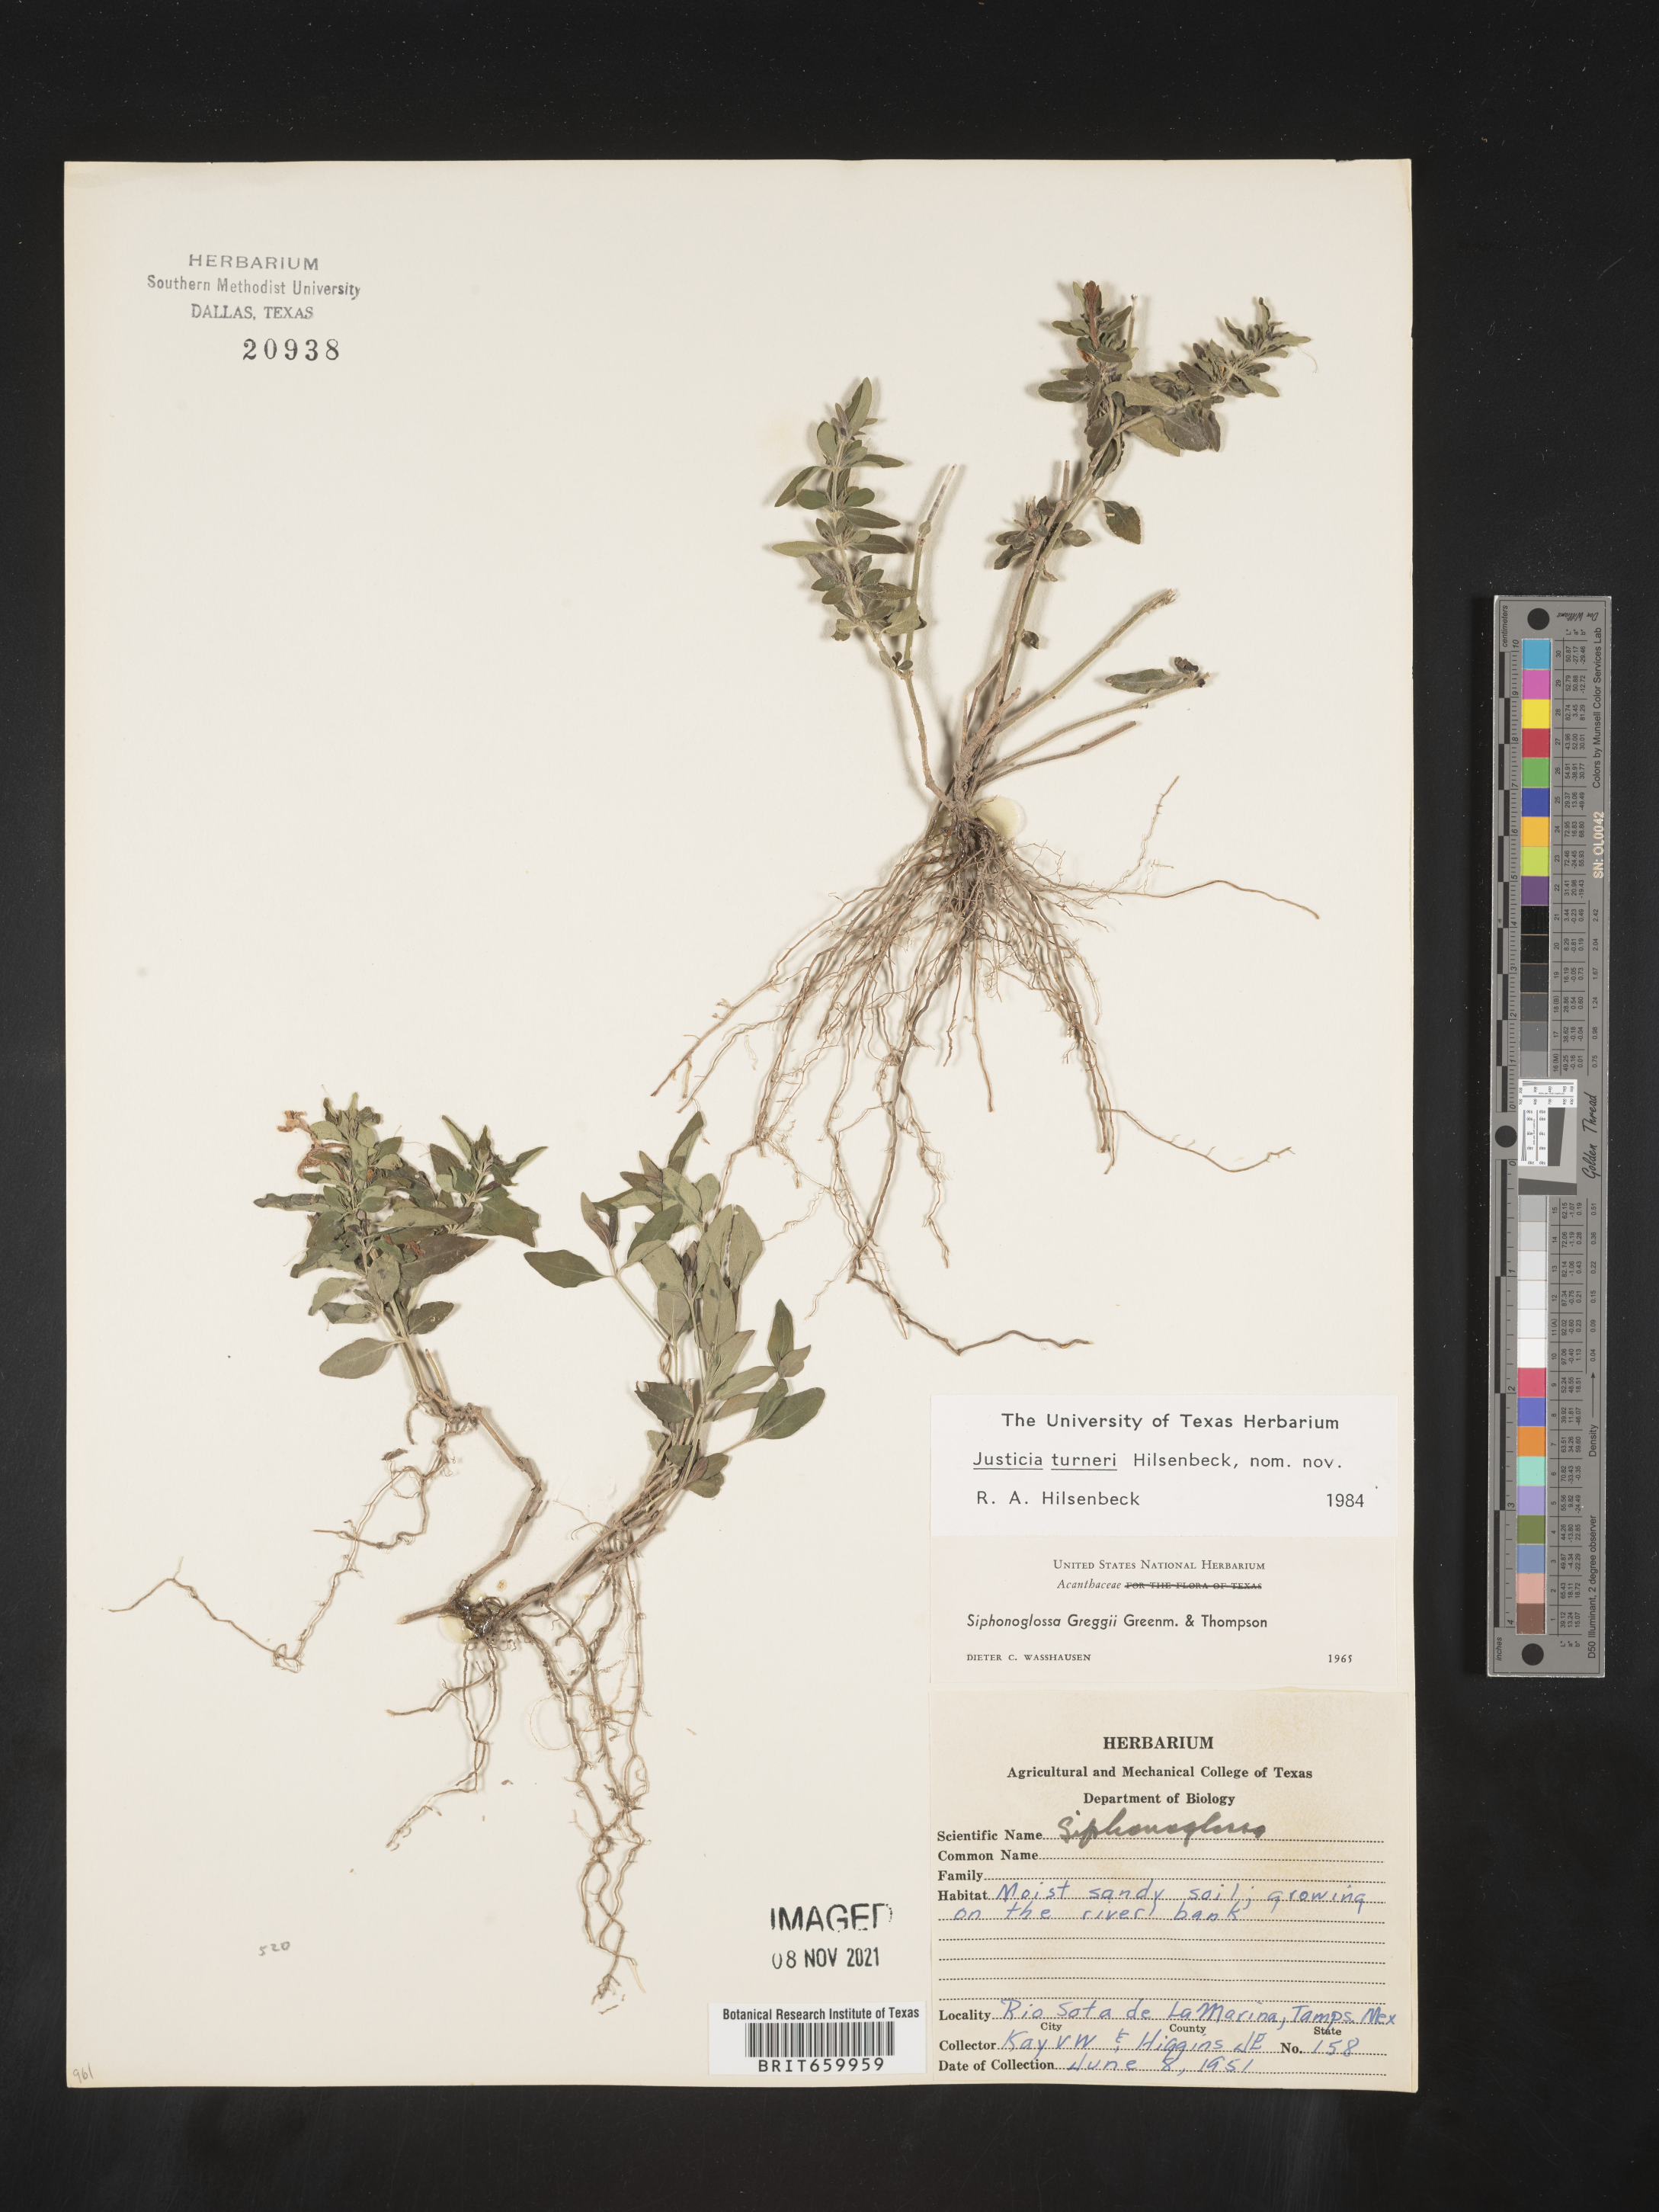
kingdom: Plantae
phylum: Tracheophyta
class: Magnoliopsida
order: Lamiales
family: Acanthaceae
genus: Justicia
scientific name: Justicia
